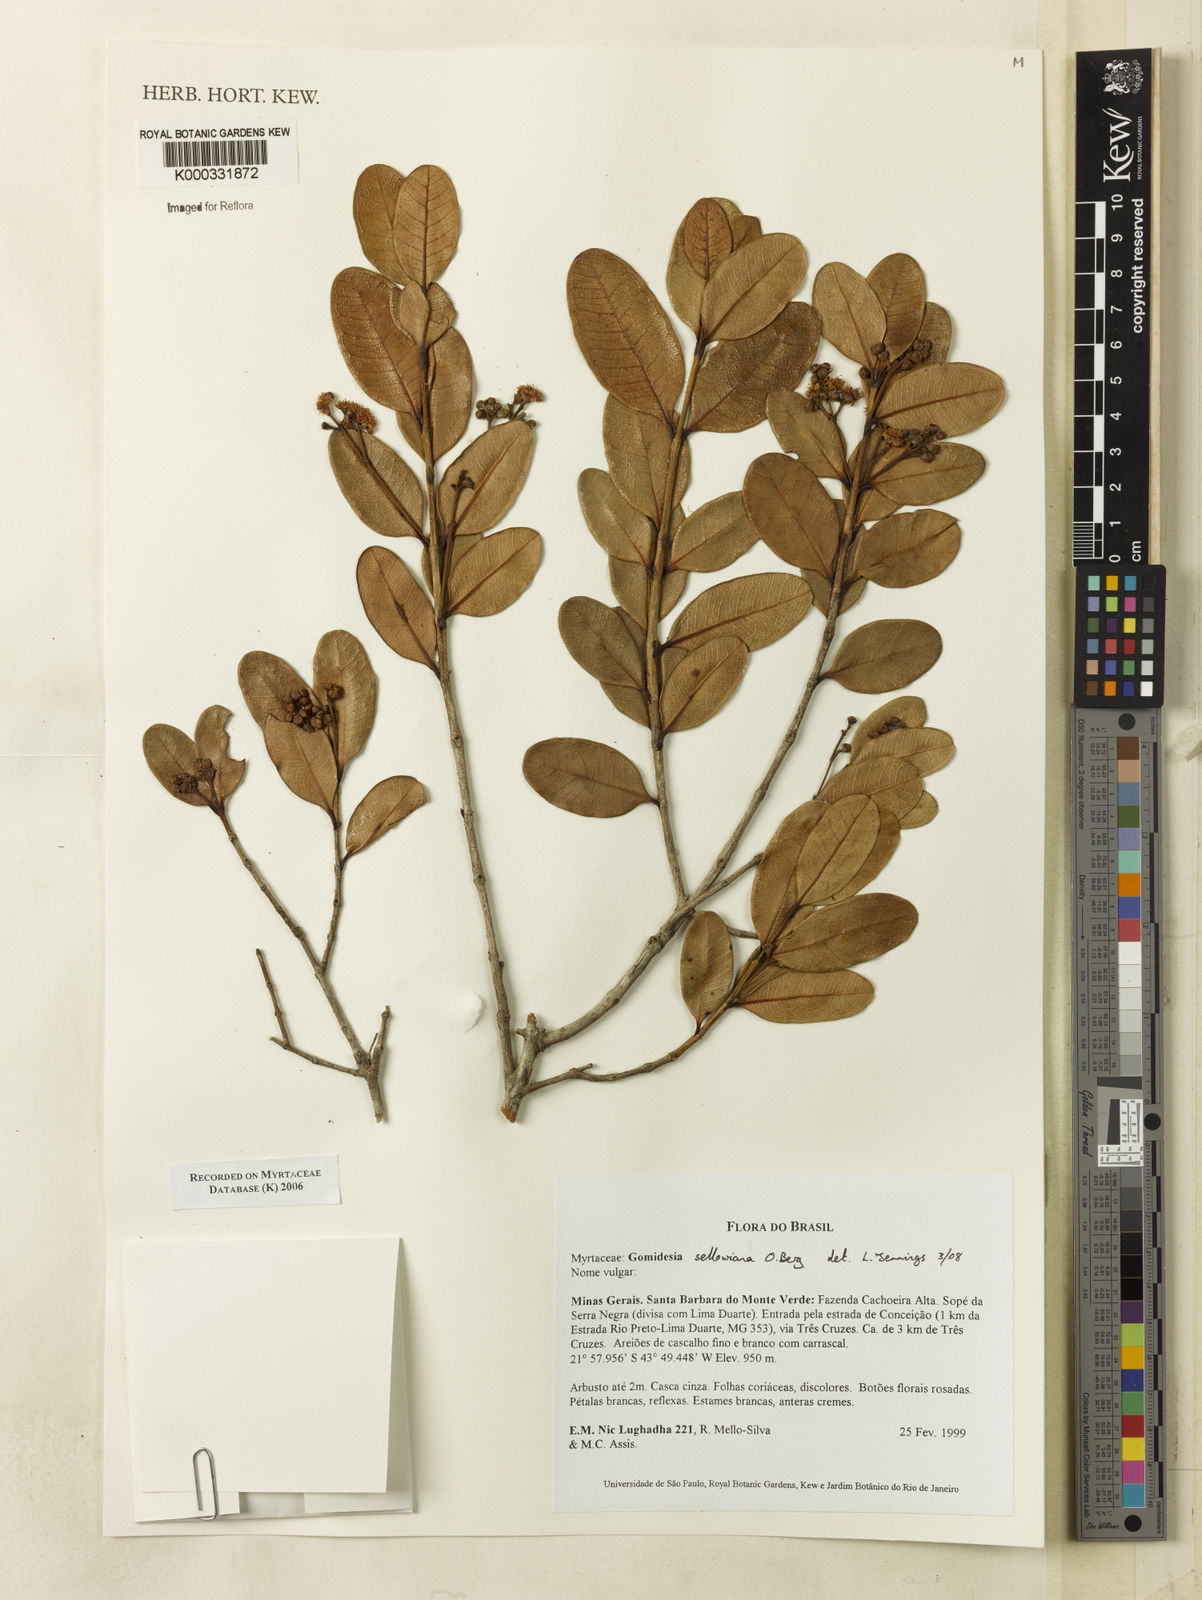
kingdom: Plantae
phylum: Tracheophyta
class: Magnoliopsida
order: Myrtales
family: Myrtaceae
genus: Myrcia
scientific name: Myrcia hartwegiana
